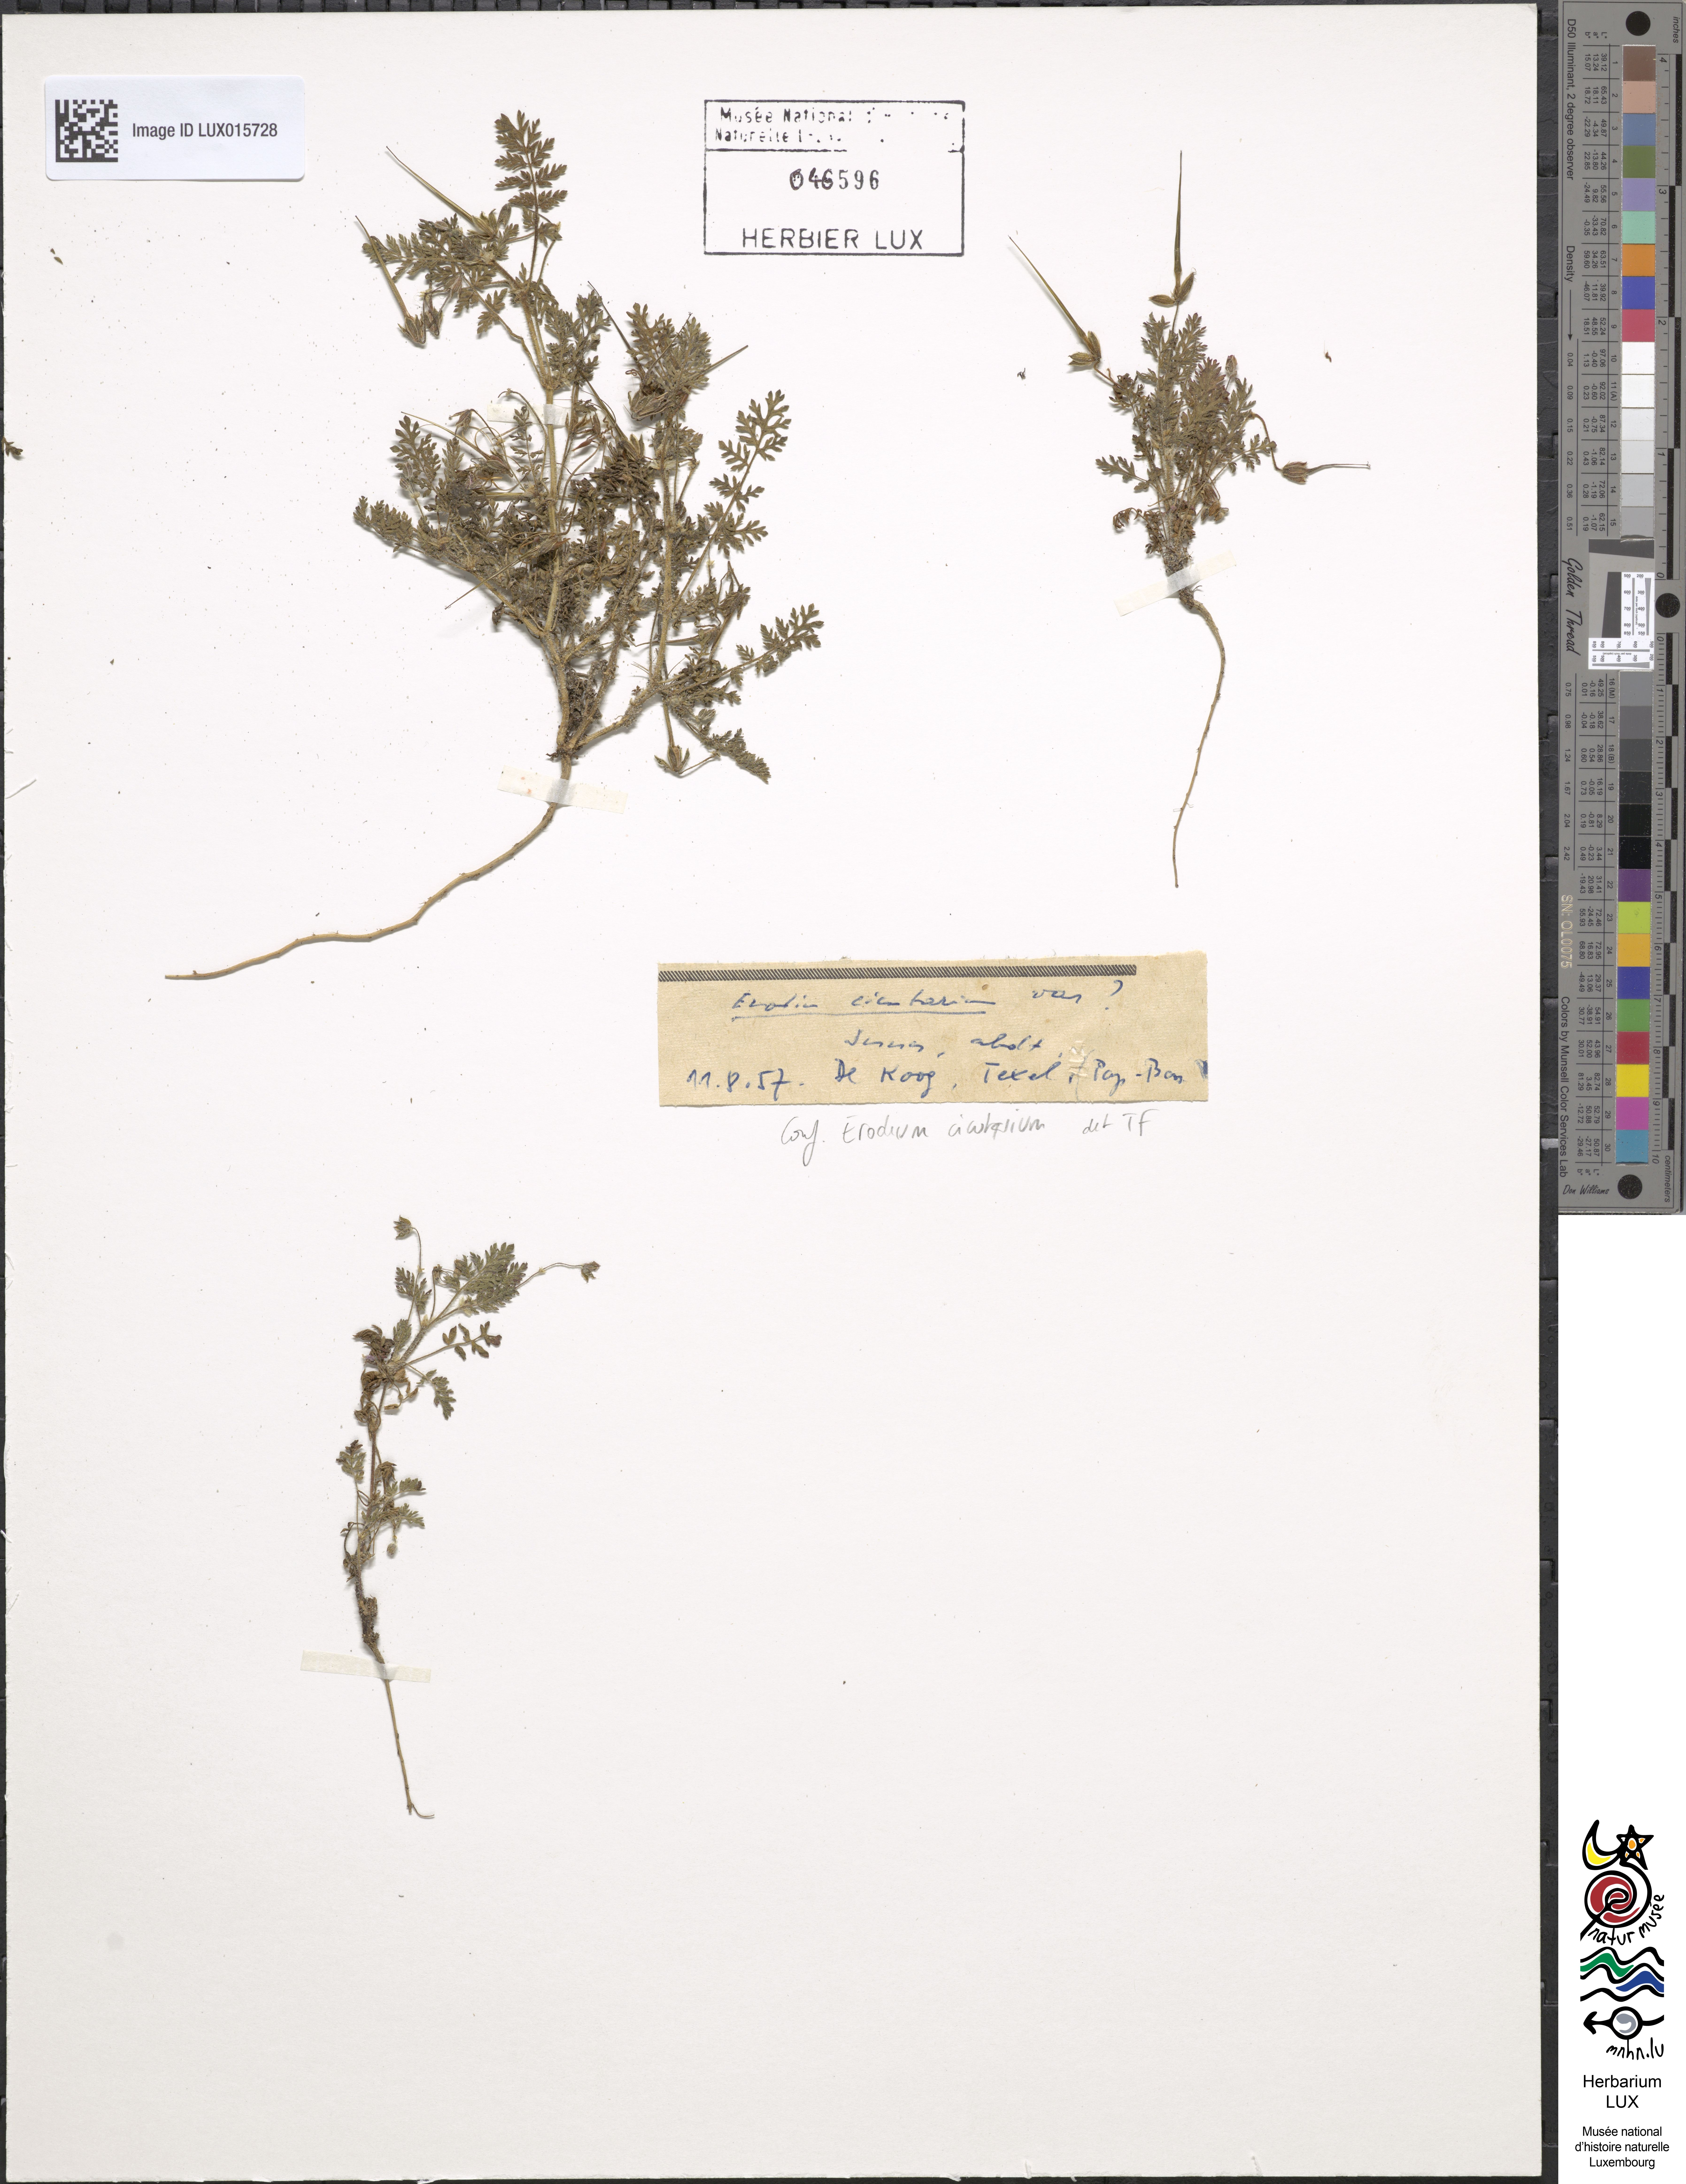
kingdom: Plantae
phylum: Tracheophyta
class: Magnoliopsida
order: Geraniales
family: Geraniaceae
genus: Erodium
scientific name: Erodium cicutarium
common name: Common stork's-bill
